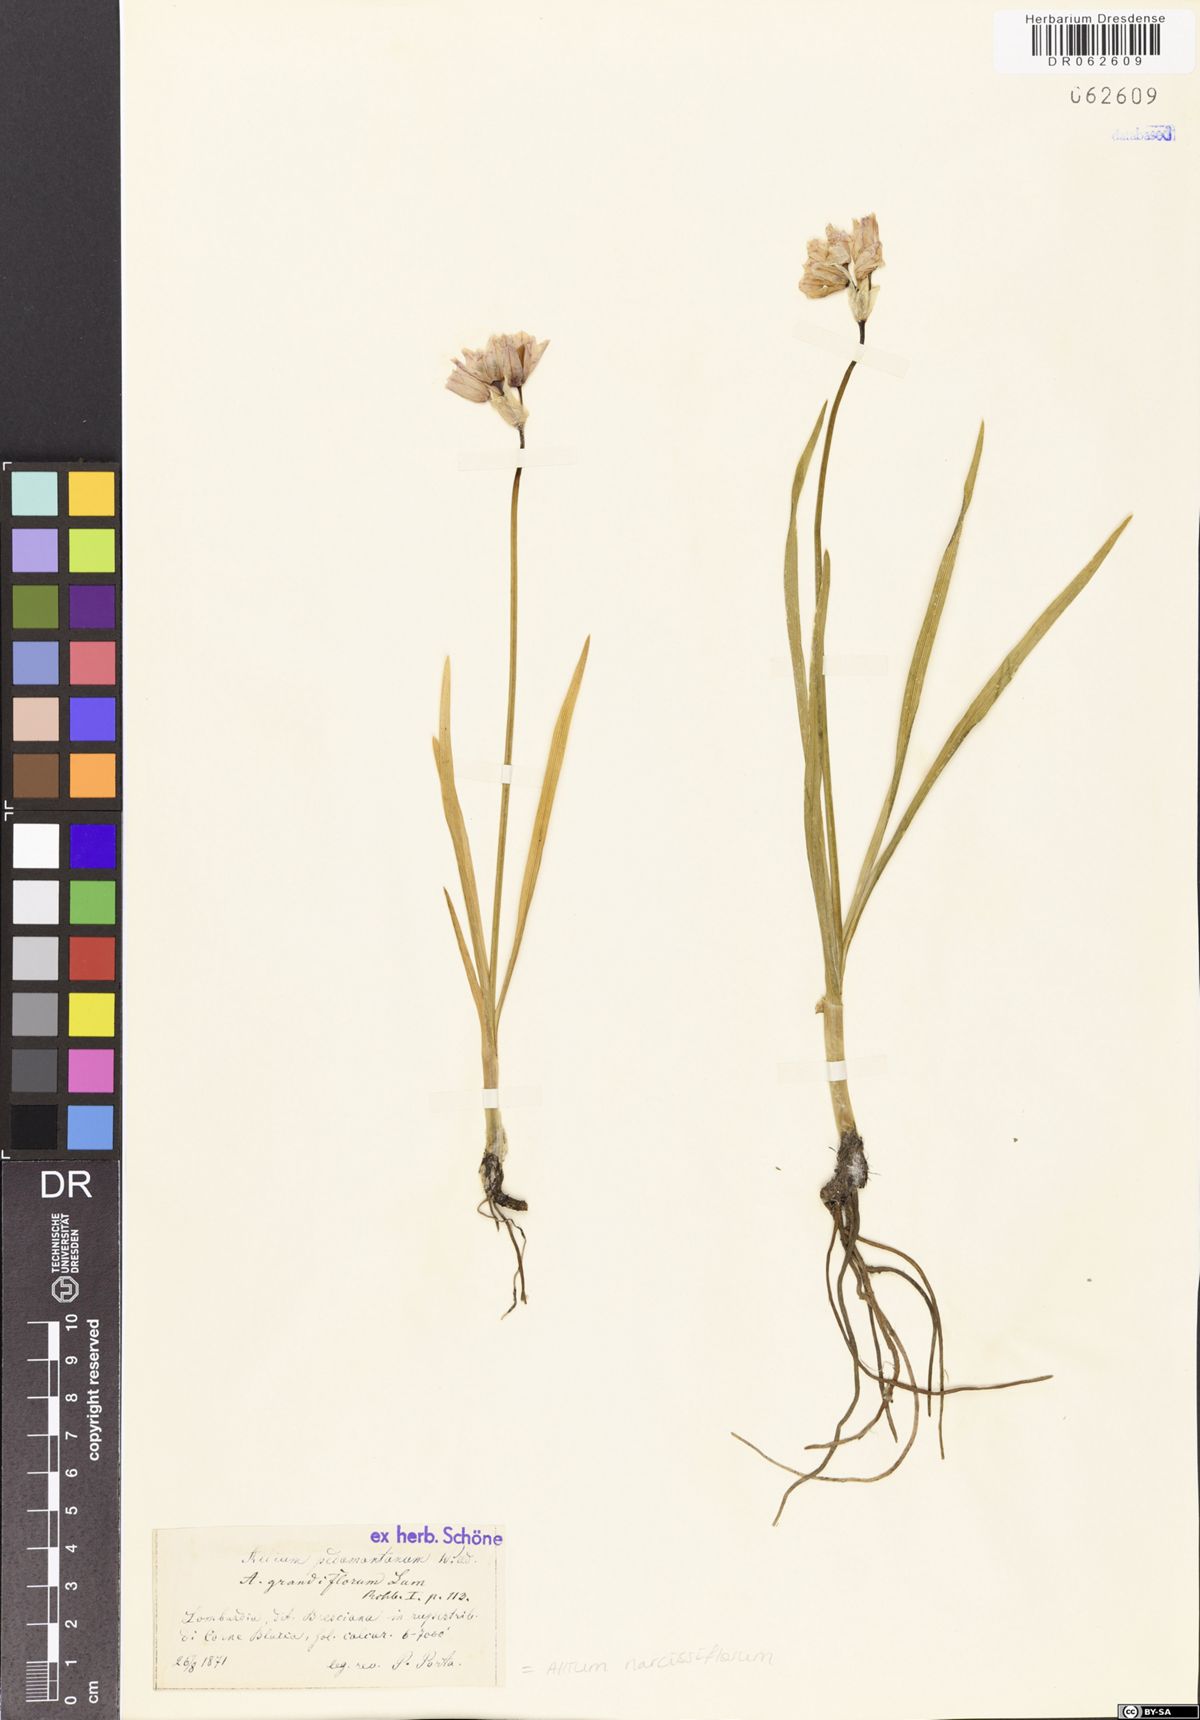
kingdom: Plantae
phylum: Tracheophyta
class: Liliopsida
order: Asparagales
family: Amaryllidaceae
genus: Allium
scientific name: Allium narcissiflorum
